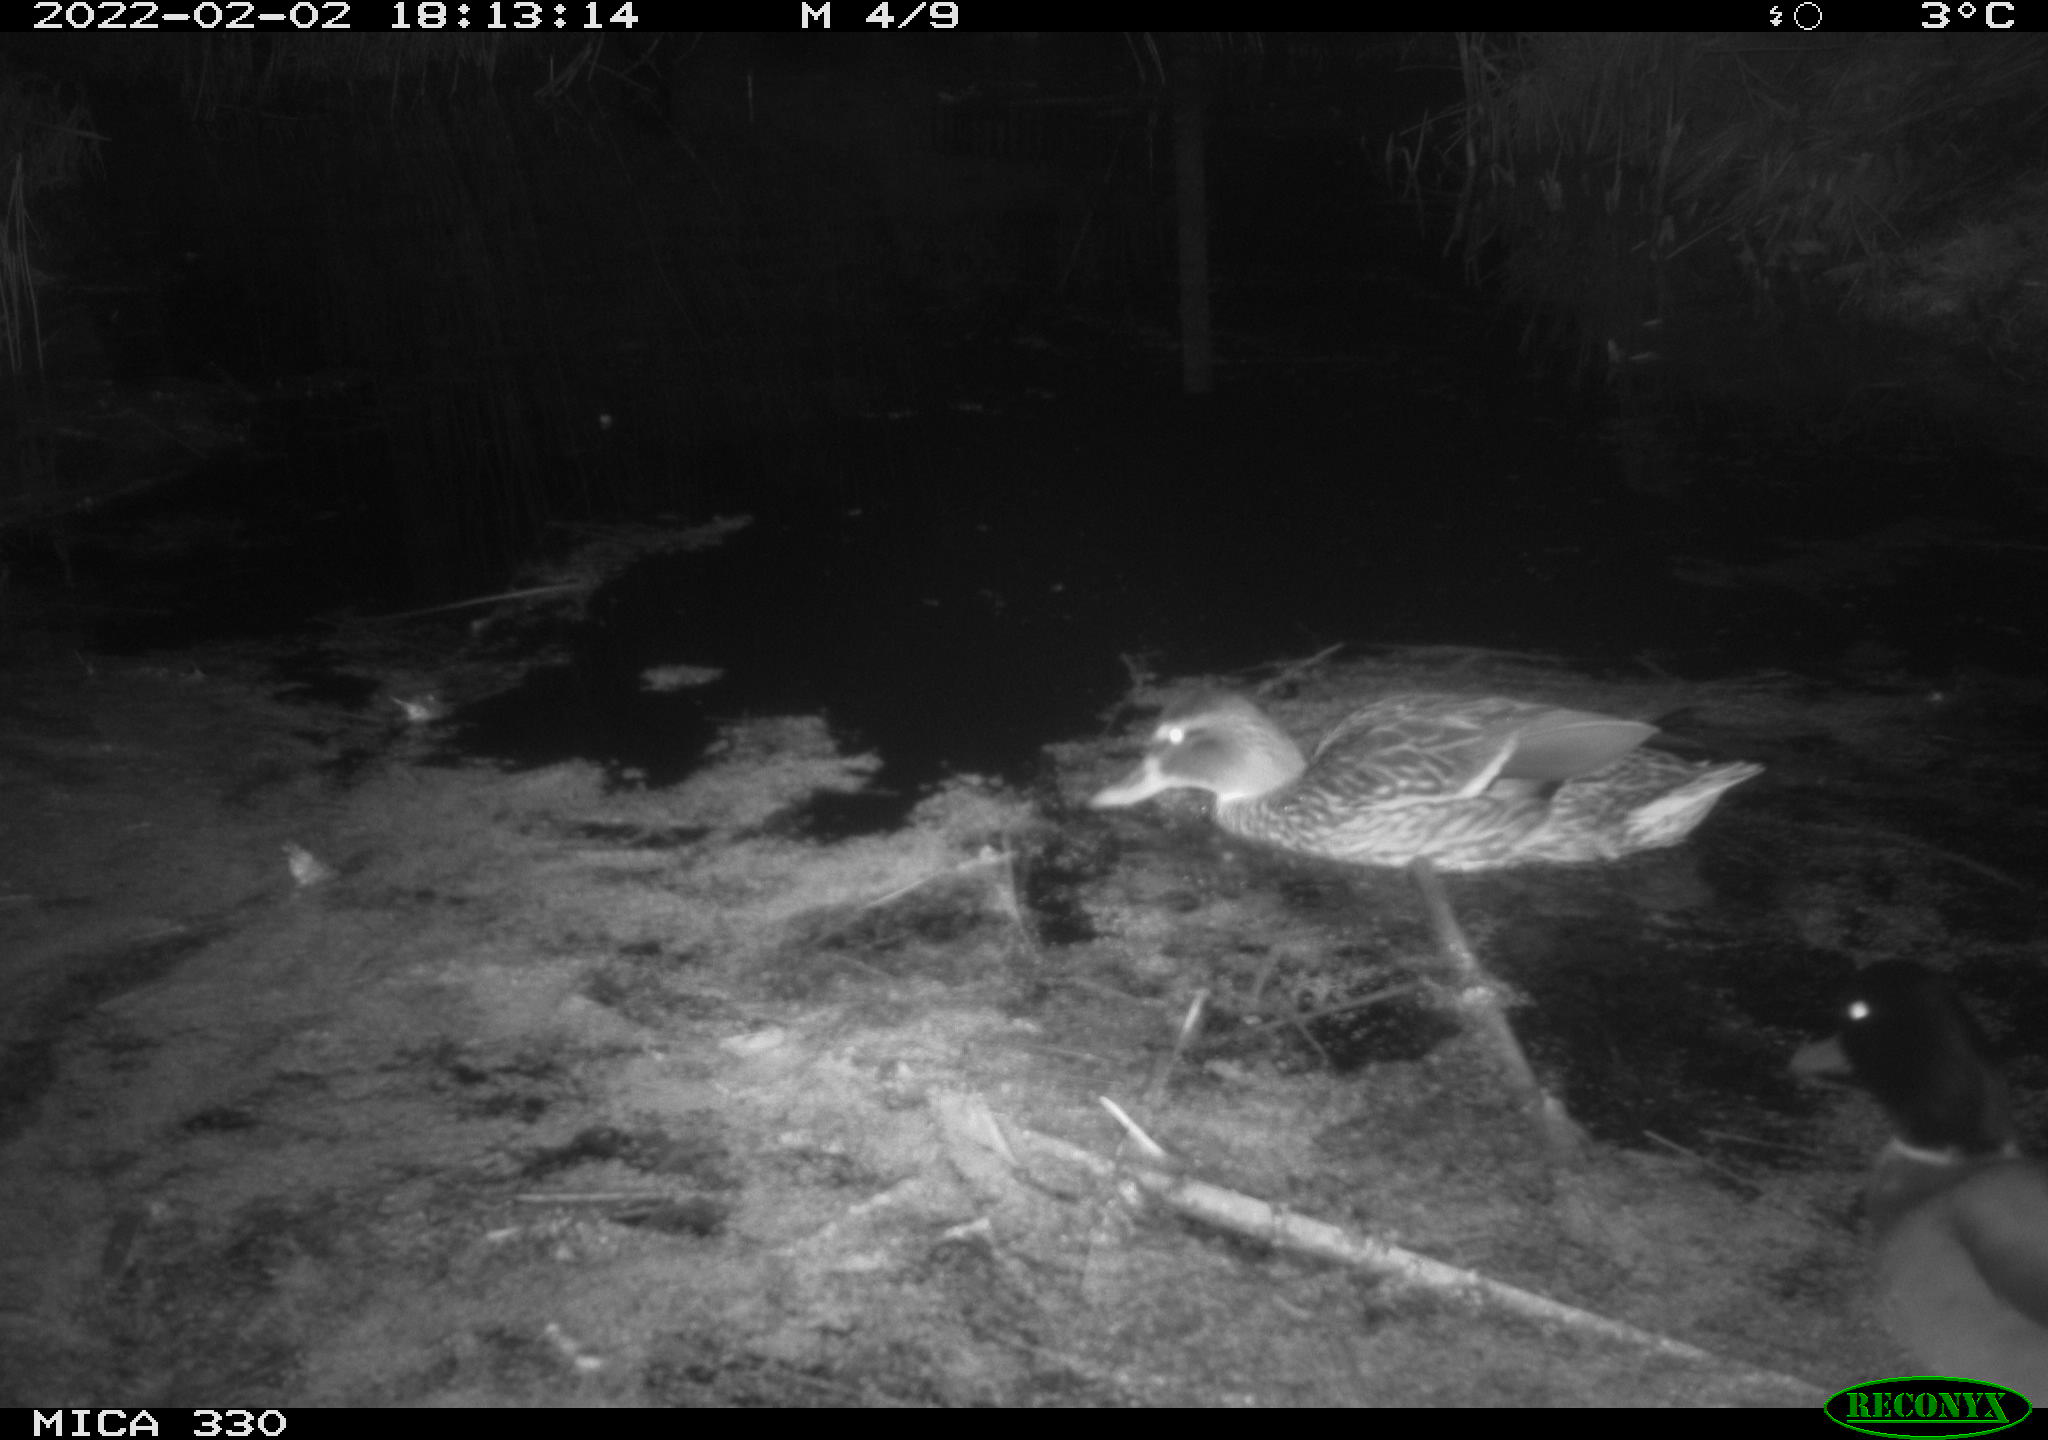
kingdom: Animalia
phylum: Chordata
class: Aves
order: Anseriformes
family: Anatidae
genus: Anas
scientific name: Anas platyrhynchos
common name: Mallard
